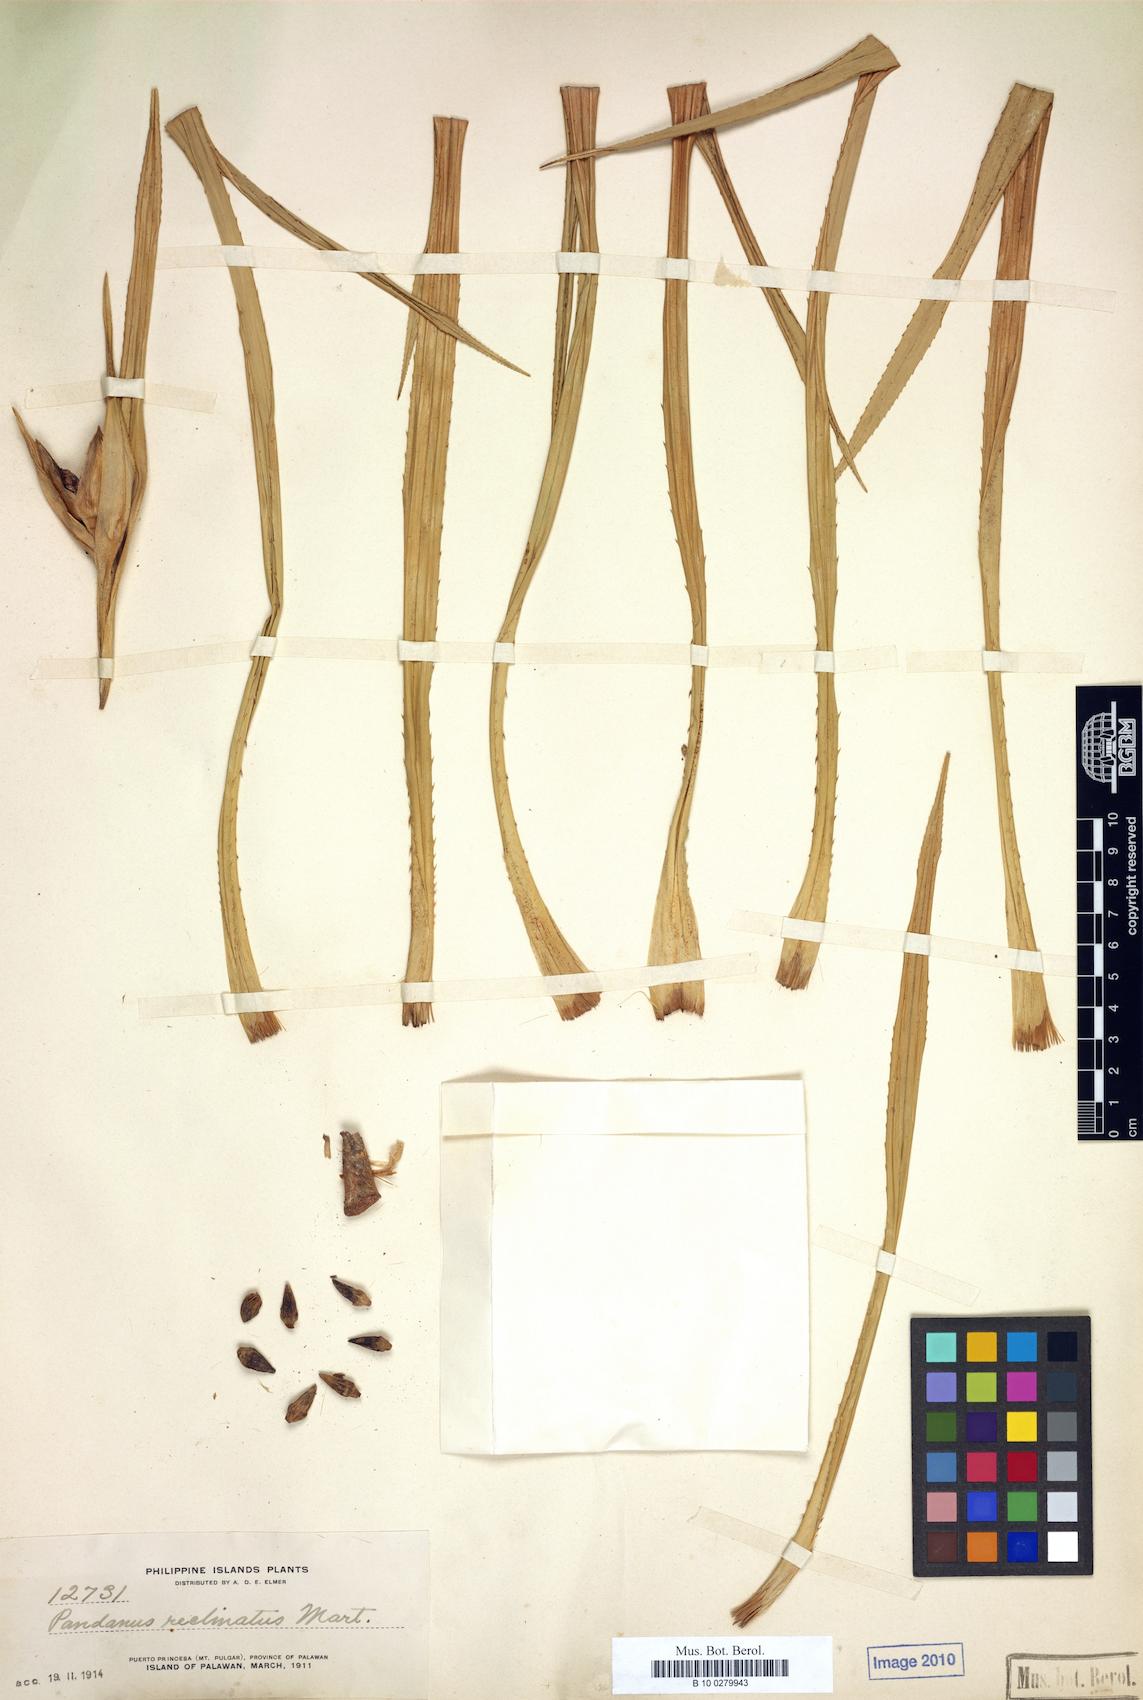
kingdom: Plantae
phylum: Tracheophyta
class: Liliopsida
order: Pandanales
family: Pandanaceae
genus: Pandanus
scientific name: Pandanus reclinatus
